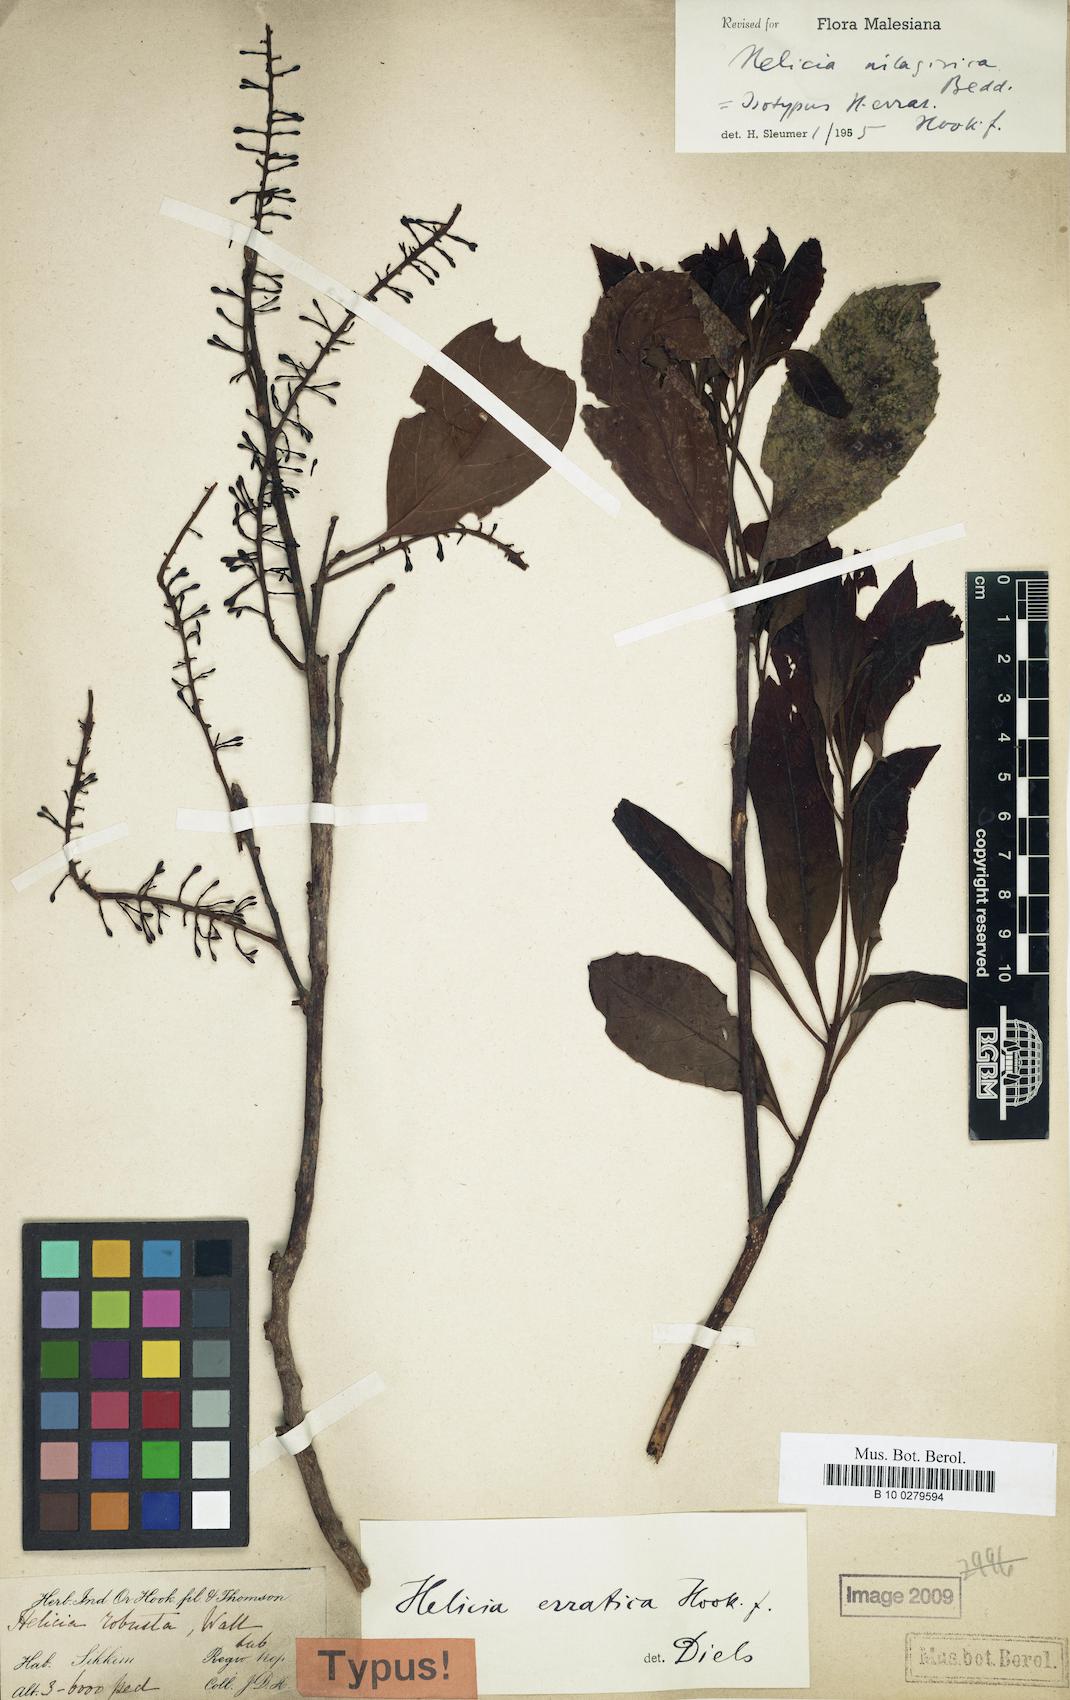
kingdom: Plantae
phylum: Tracheophyta
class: Magnoliopsida
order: Proteales
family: Proteaceae
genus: Helicia
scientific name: Helicia nilagirica
